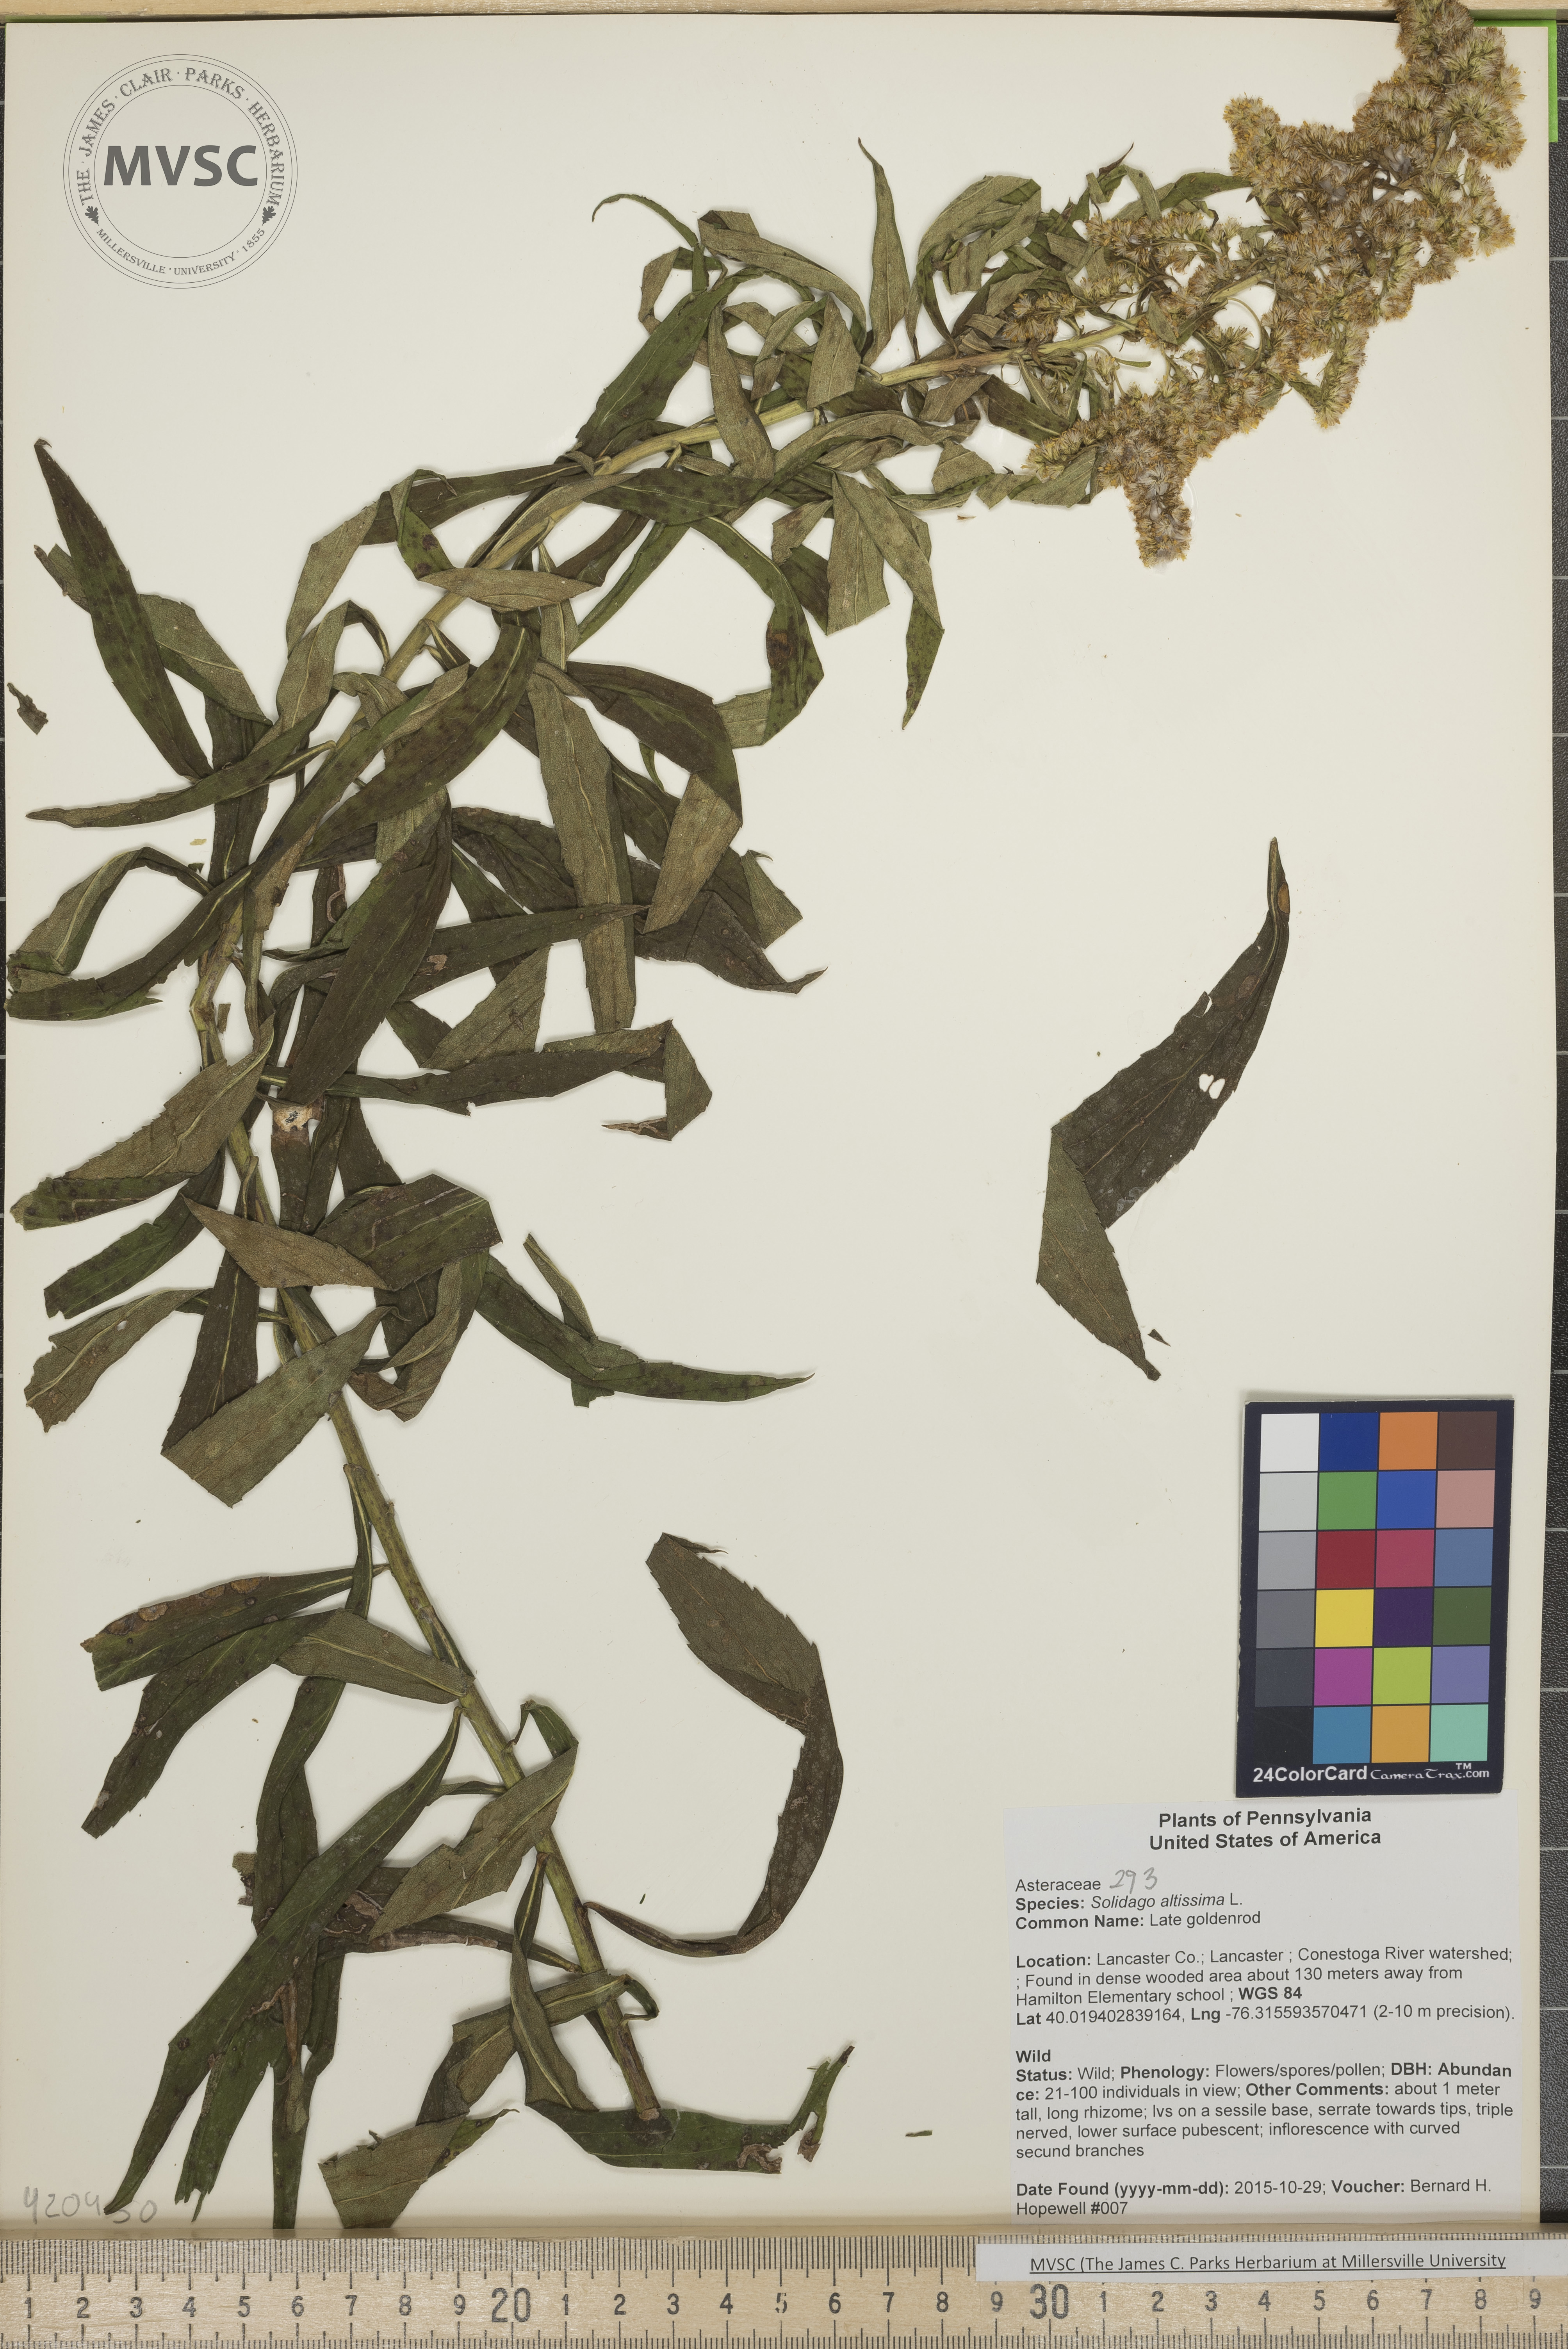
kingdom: Plantae
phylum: Tracheophyta
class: Magnoliopsida
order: Asterales
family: Asteraceae
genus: Solidago
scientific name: Solidago altissima
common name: Late goldenrod
